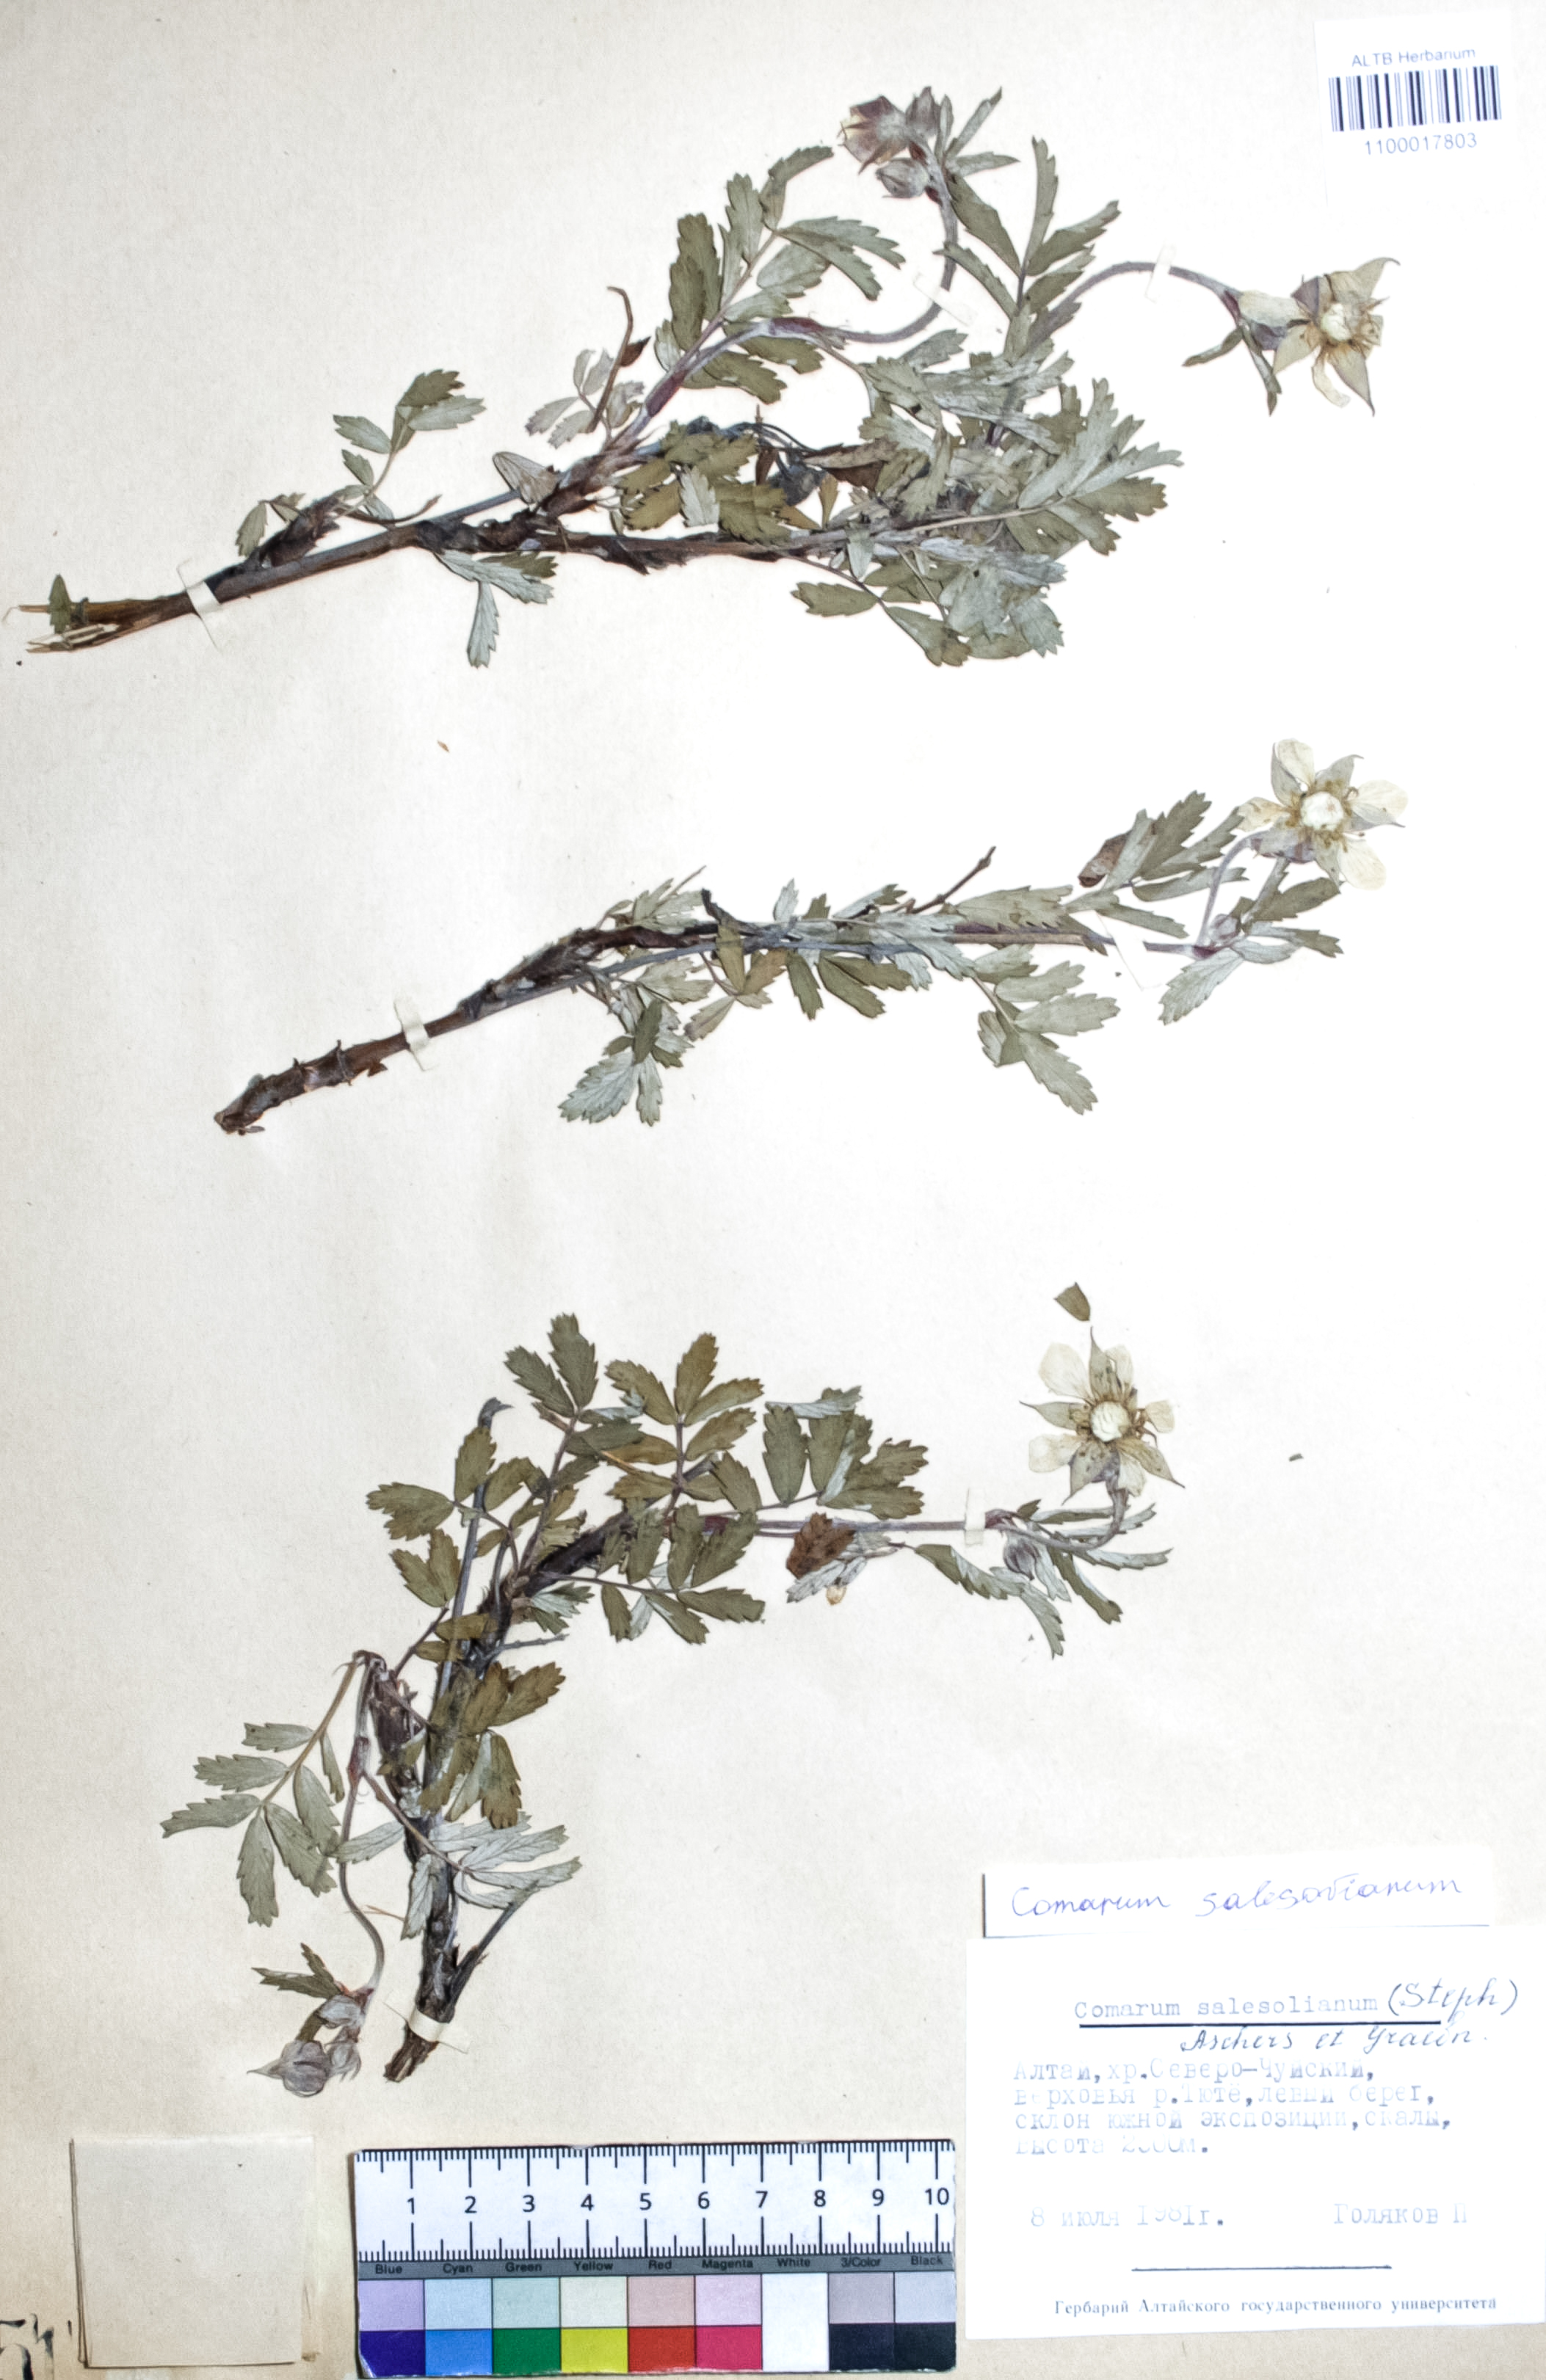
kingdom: Plantae
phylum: Tracheophyta
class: Magnoliopsida
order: Rosales
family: Rosaceae
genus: Farinopsis
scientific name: Farinopsis salesoviana
